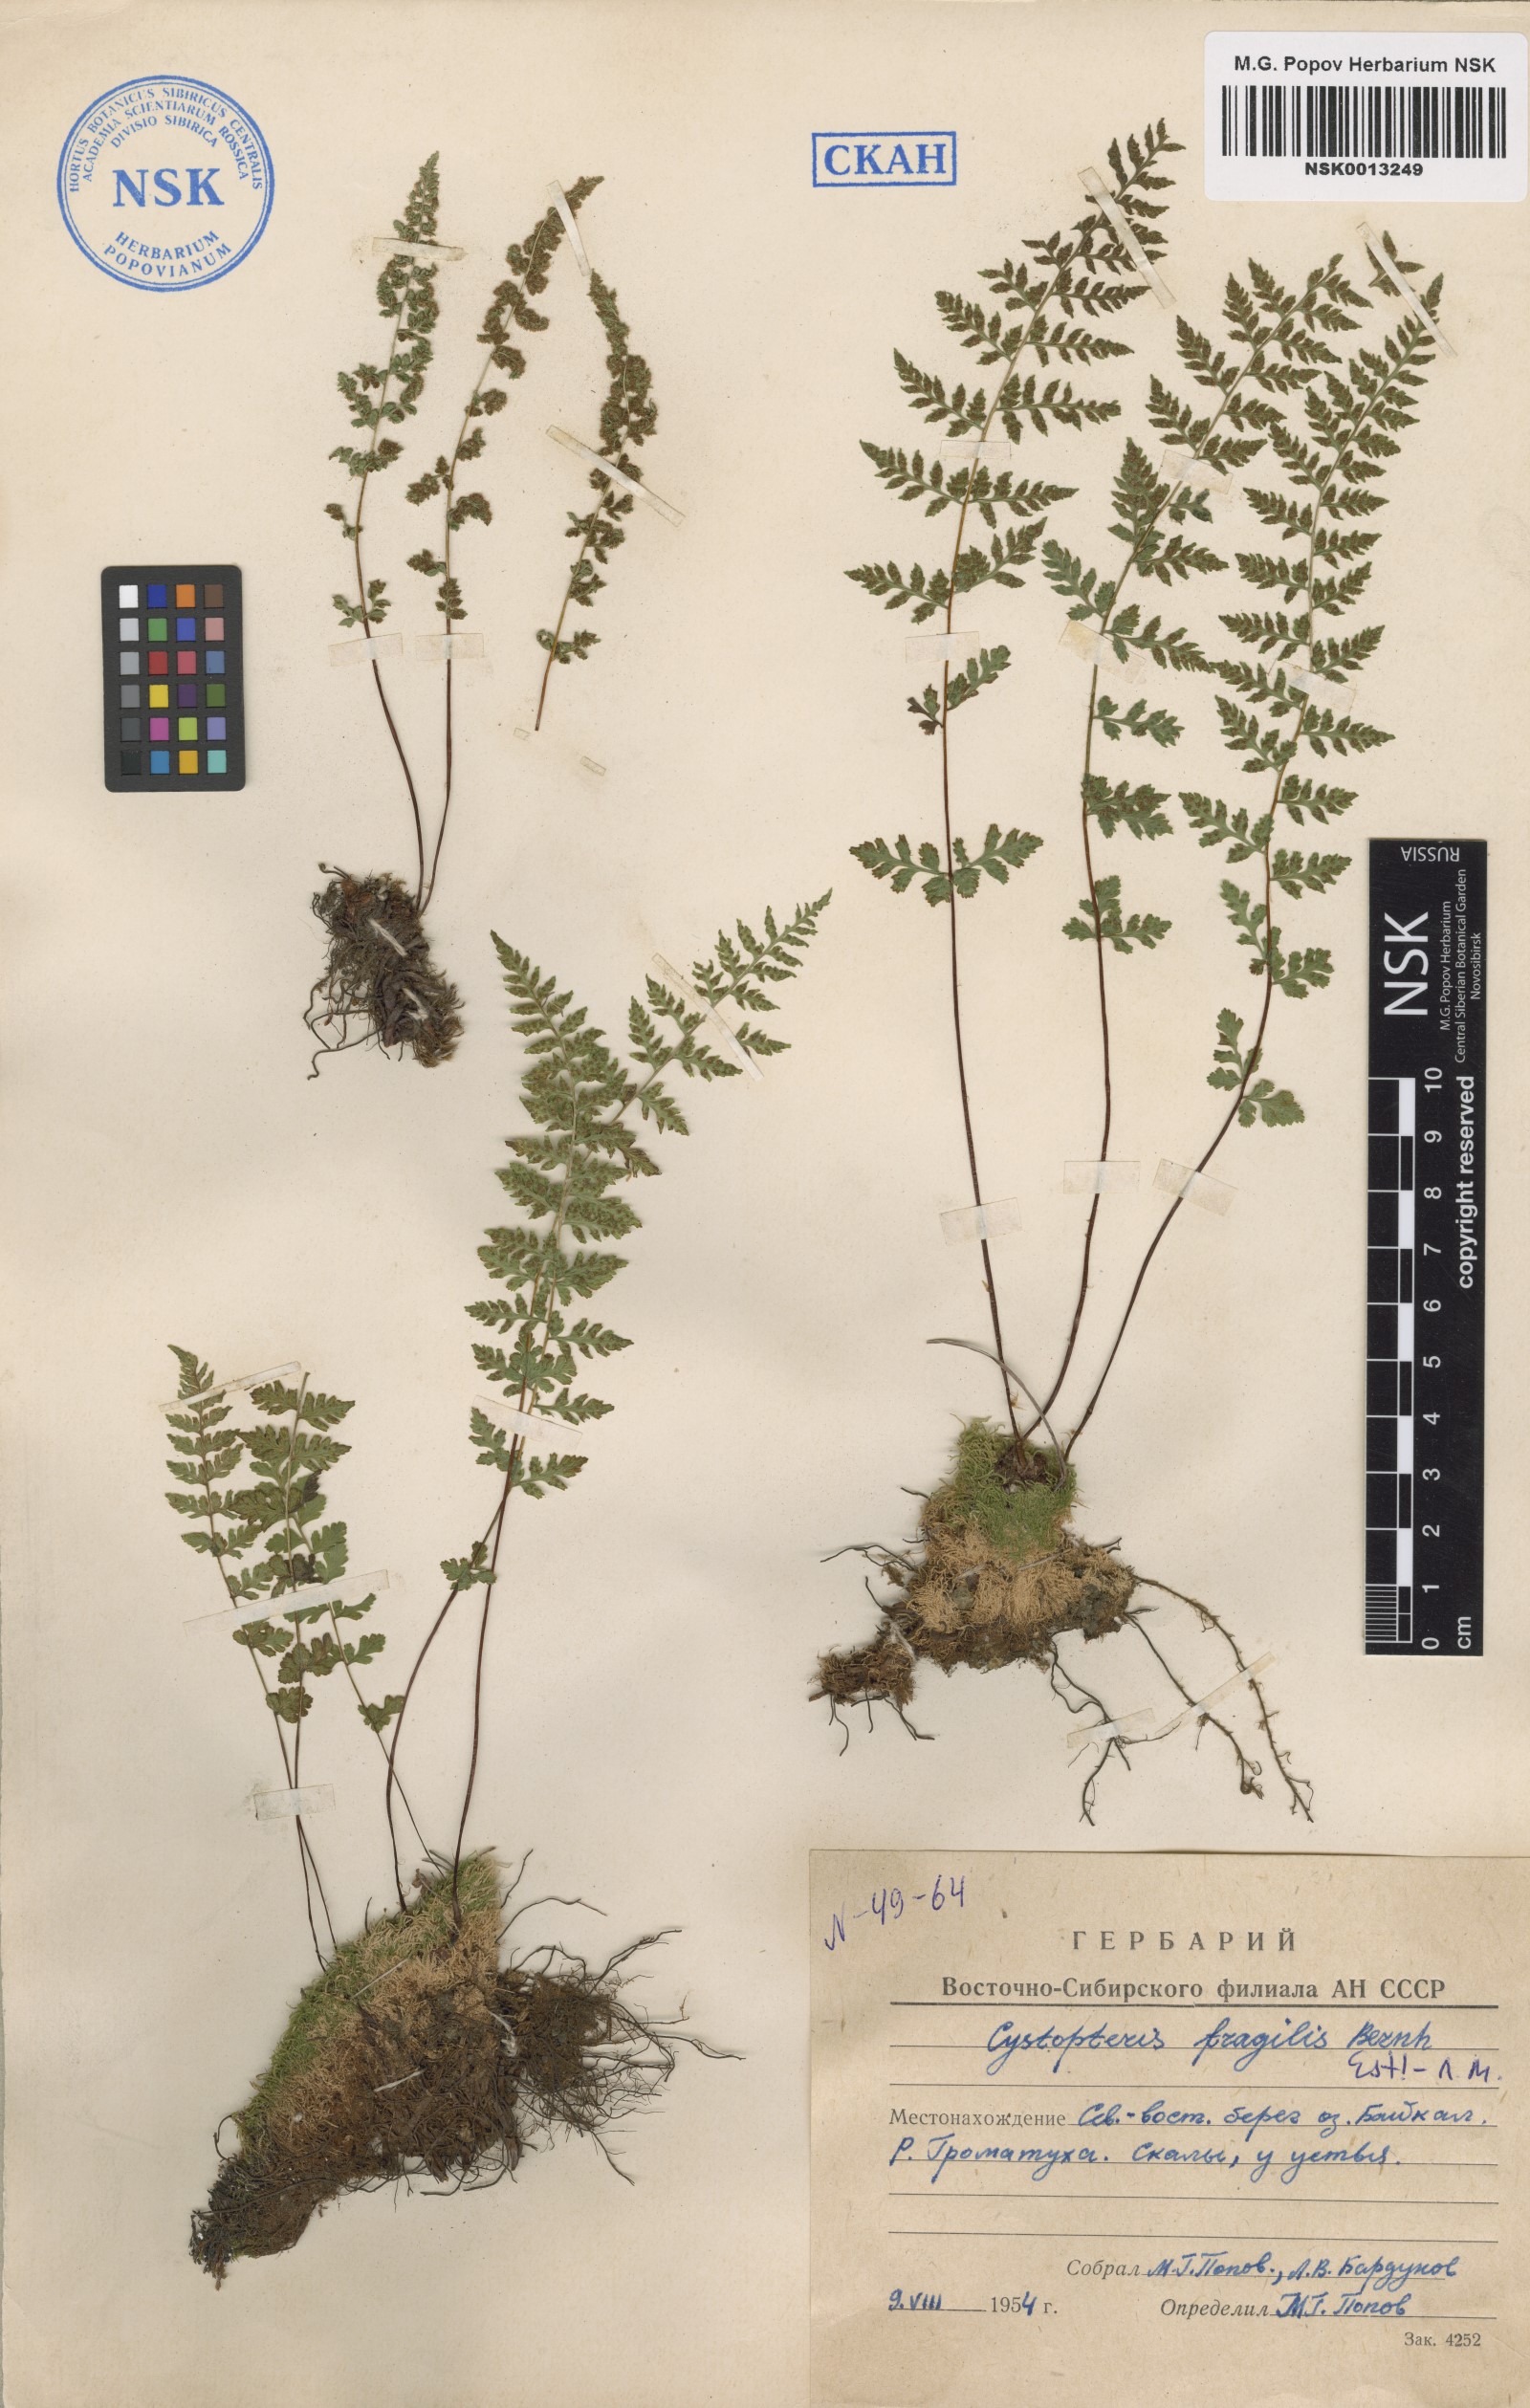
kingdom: Plantae
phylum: Tracheophyta
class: Polypodiopsida
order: Polypodiales
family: Cystopteridaceae
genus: Cystopteris
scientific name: Cystopteris fragilis
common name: Brittle bladder fern
